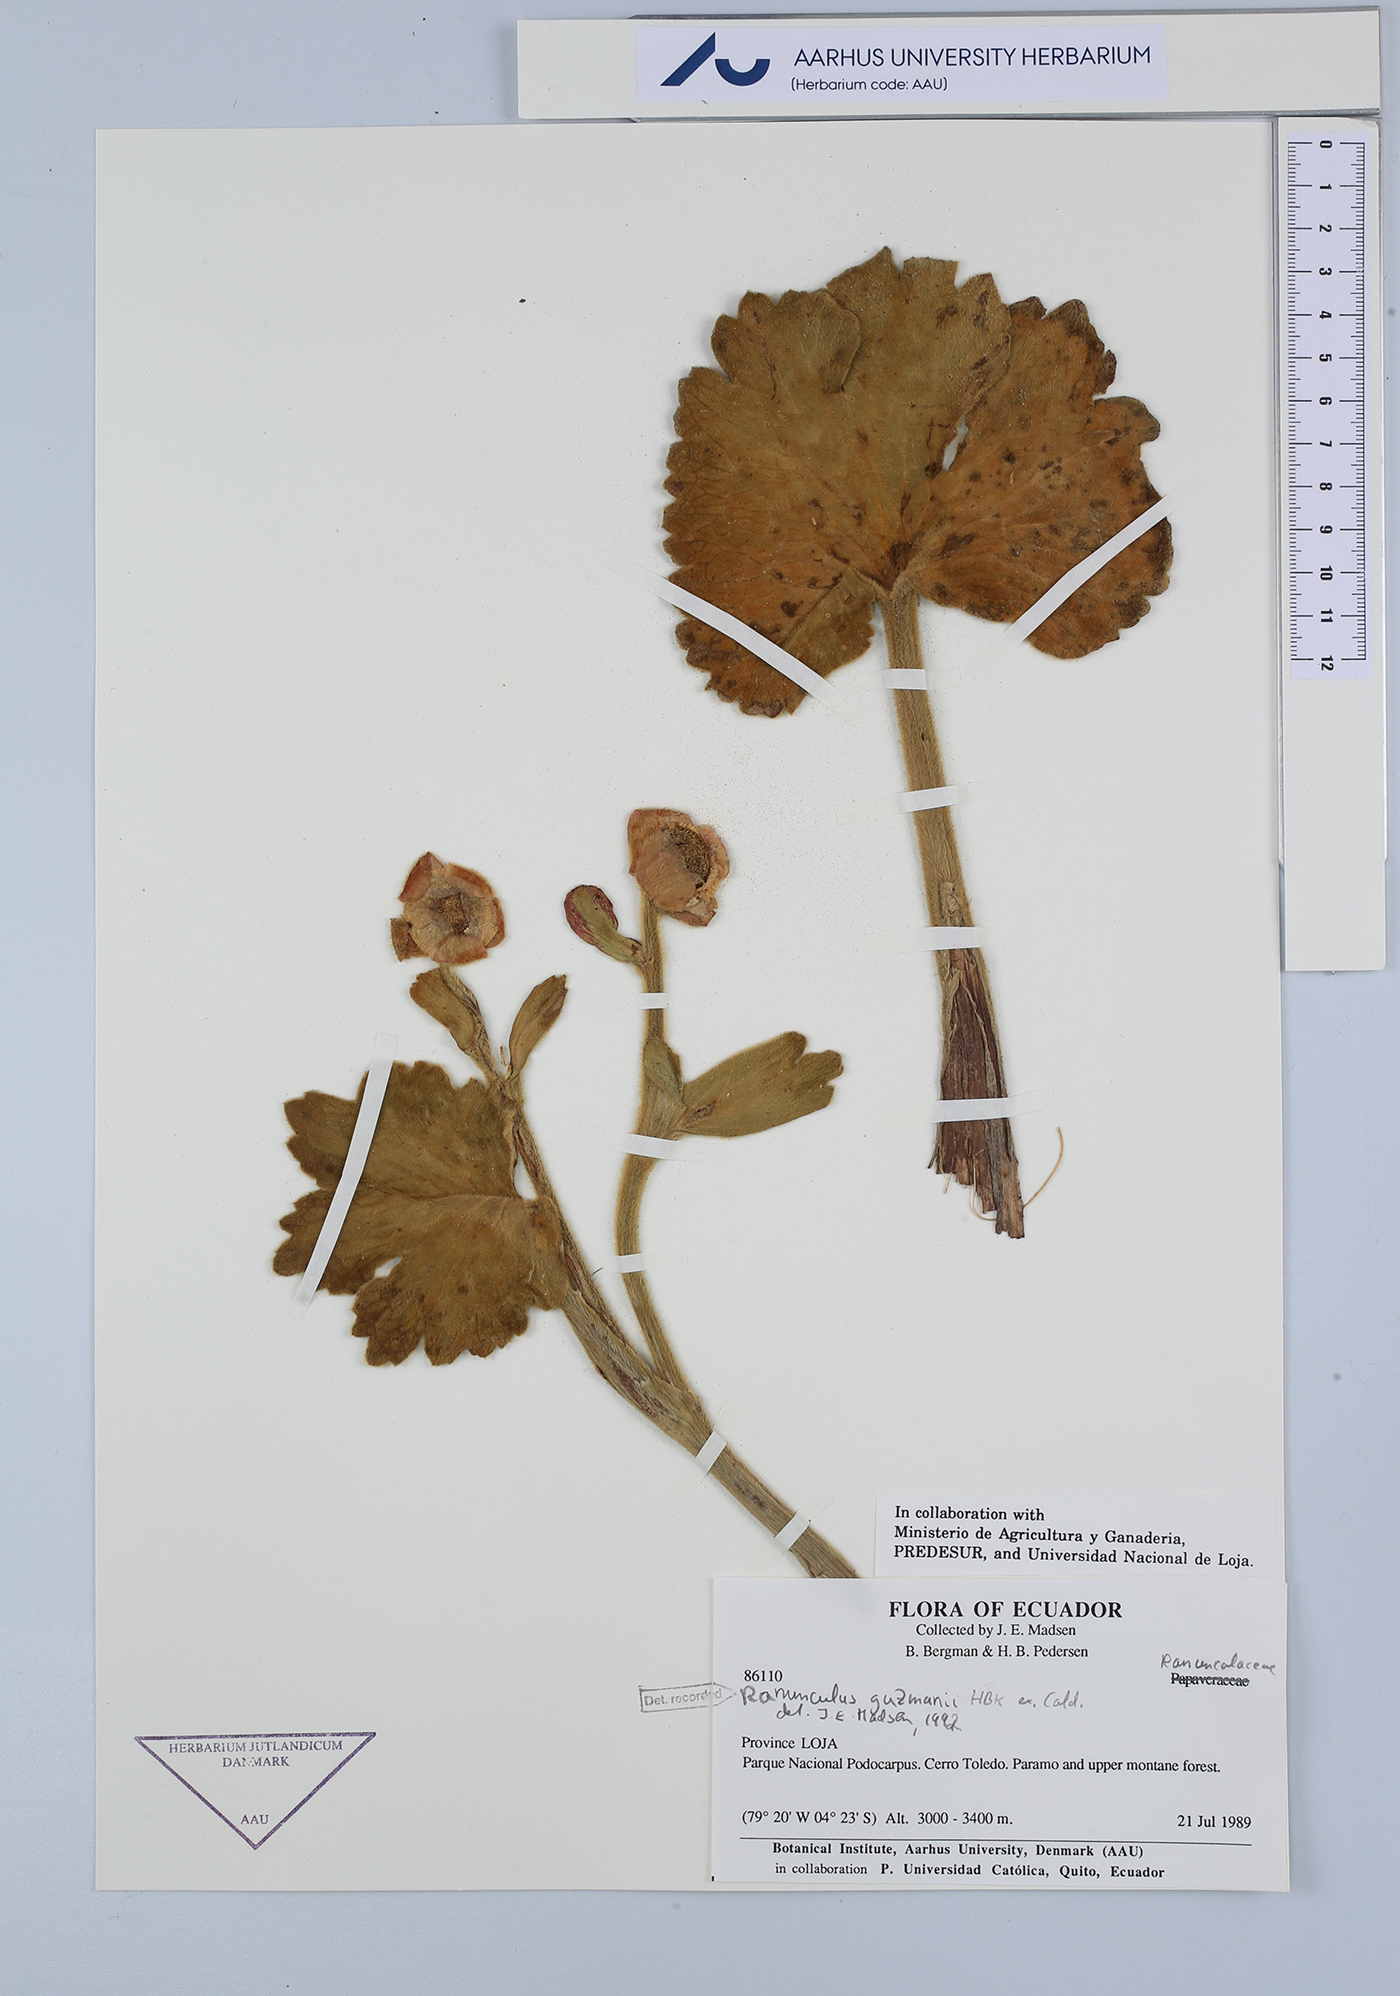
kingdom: Plantae
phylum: Tracheophyta
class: Magnoliopsida
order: Ranunculales
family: Ranunculaceae
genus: Krapfia
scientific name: Krapfia ranunculina
